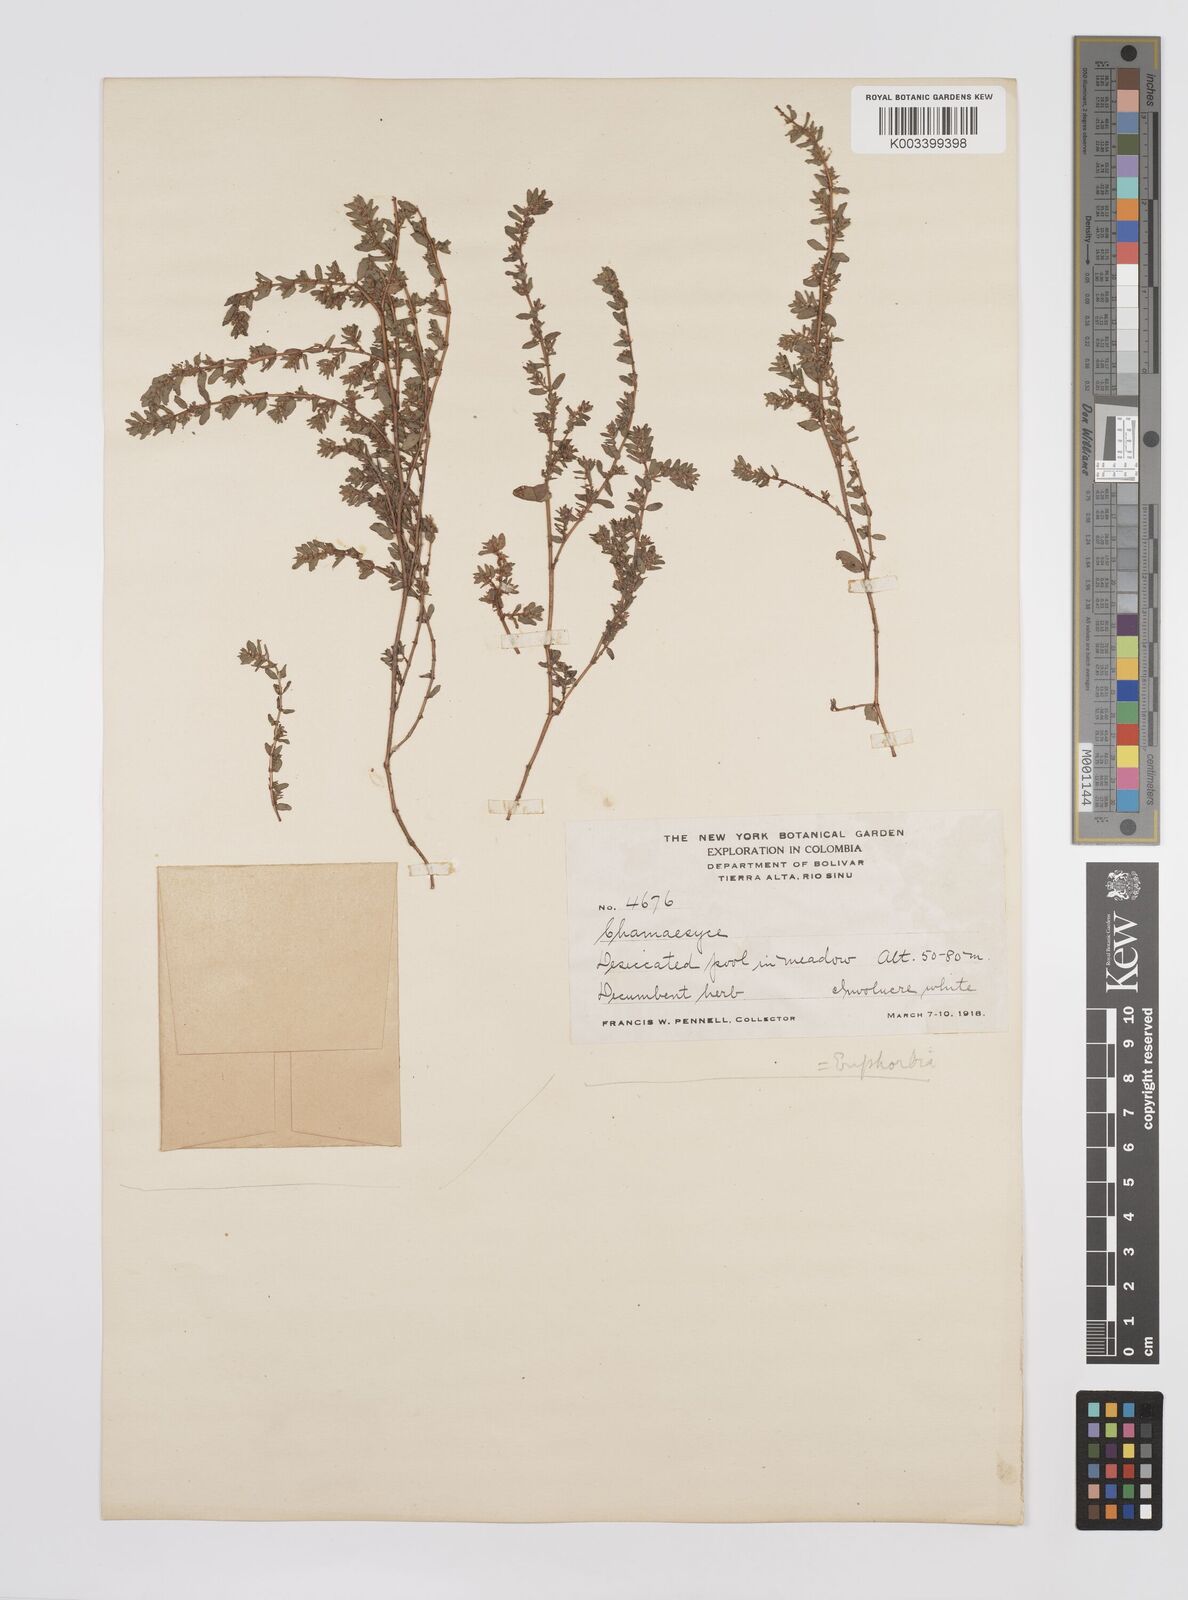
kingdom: Plantae
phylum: Tracheophyta
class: Magnoliopsida
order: Malpighiales
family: Euphorbiaceae
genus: Euphorbia
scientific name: Euphorbia
